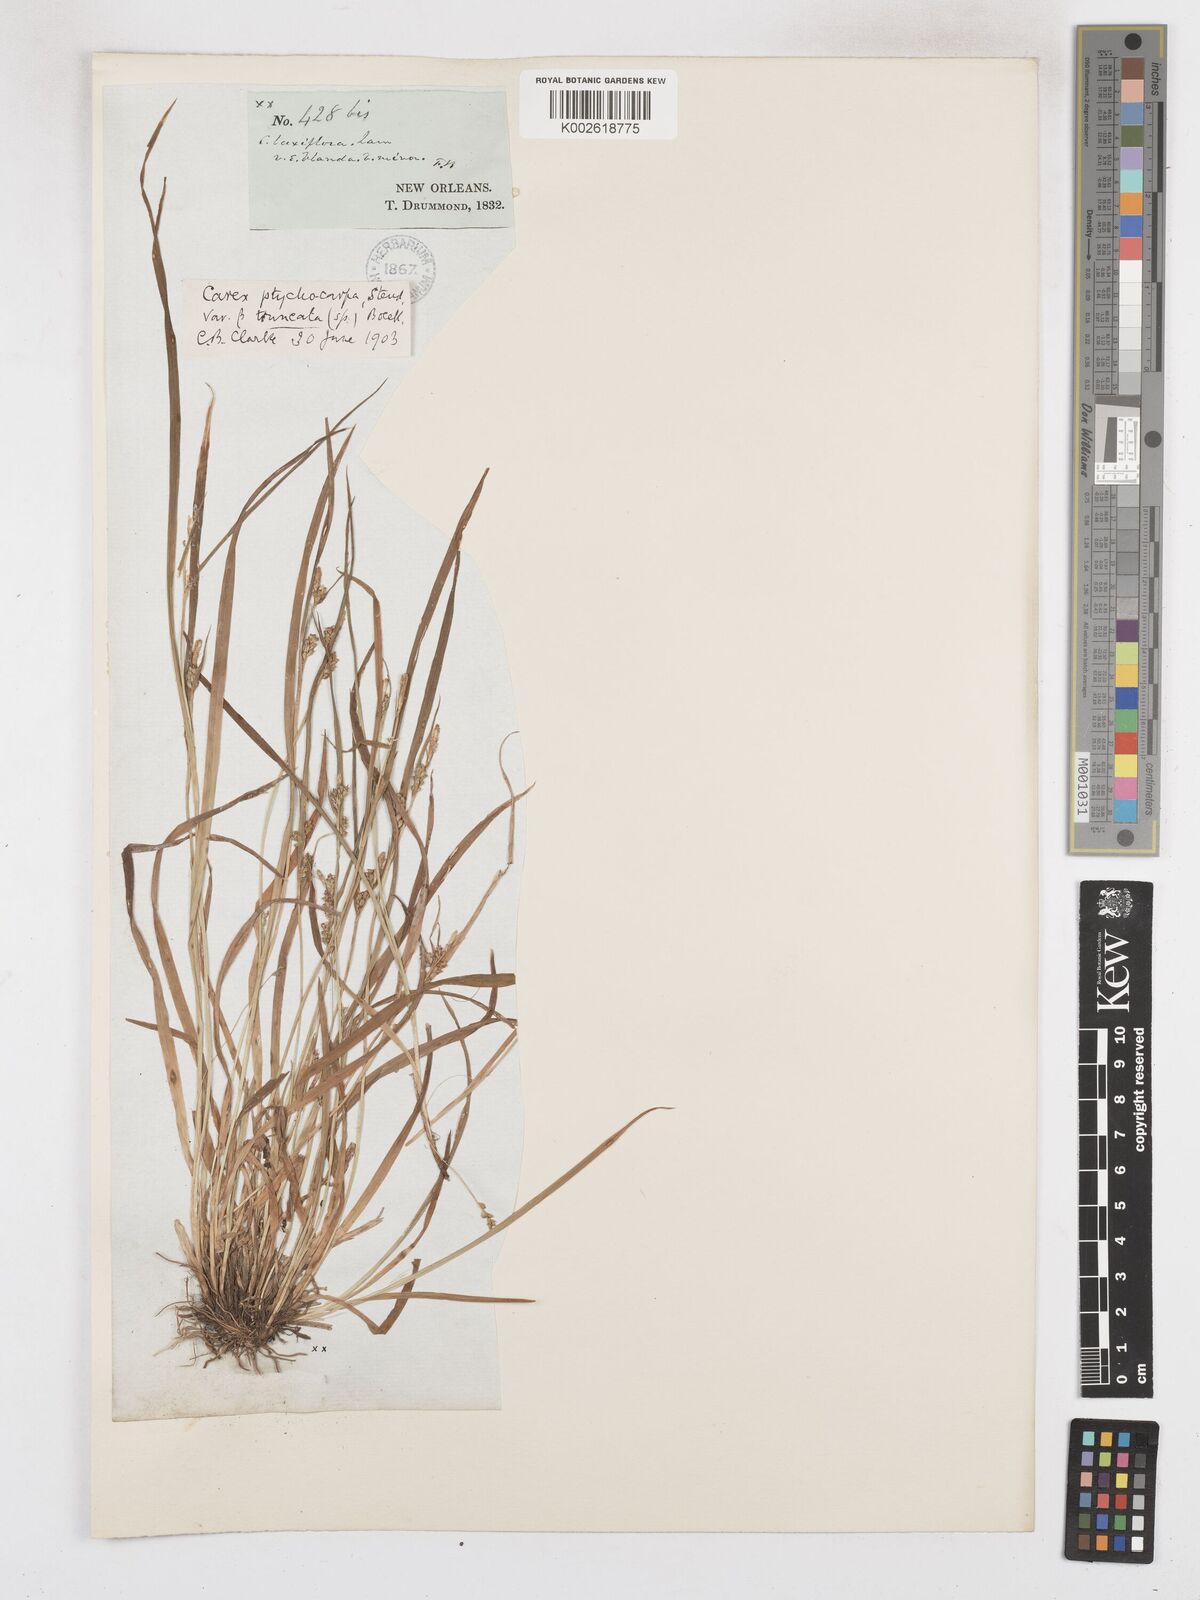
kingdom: Plantae
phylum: Tracheophyta
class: Liliopsida
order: Poales
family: Cyperaceae
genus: Carex
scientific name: Carex abscondita
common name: Thicket sedge
